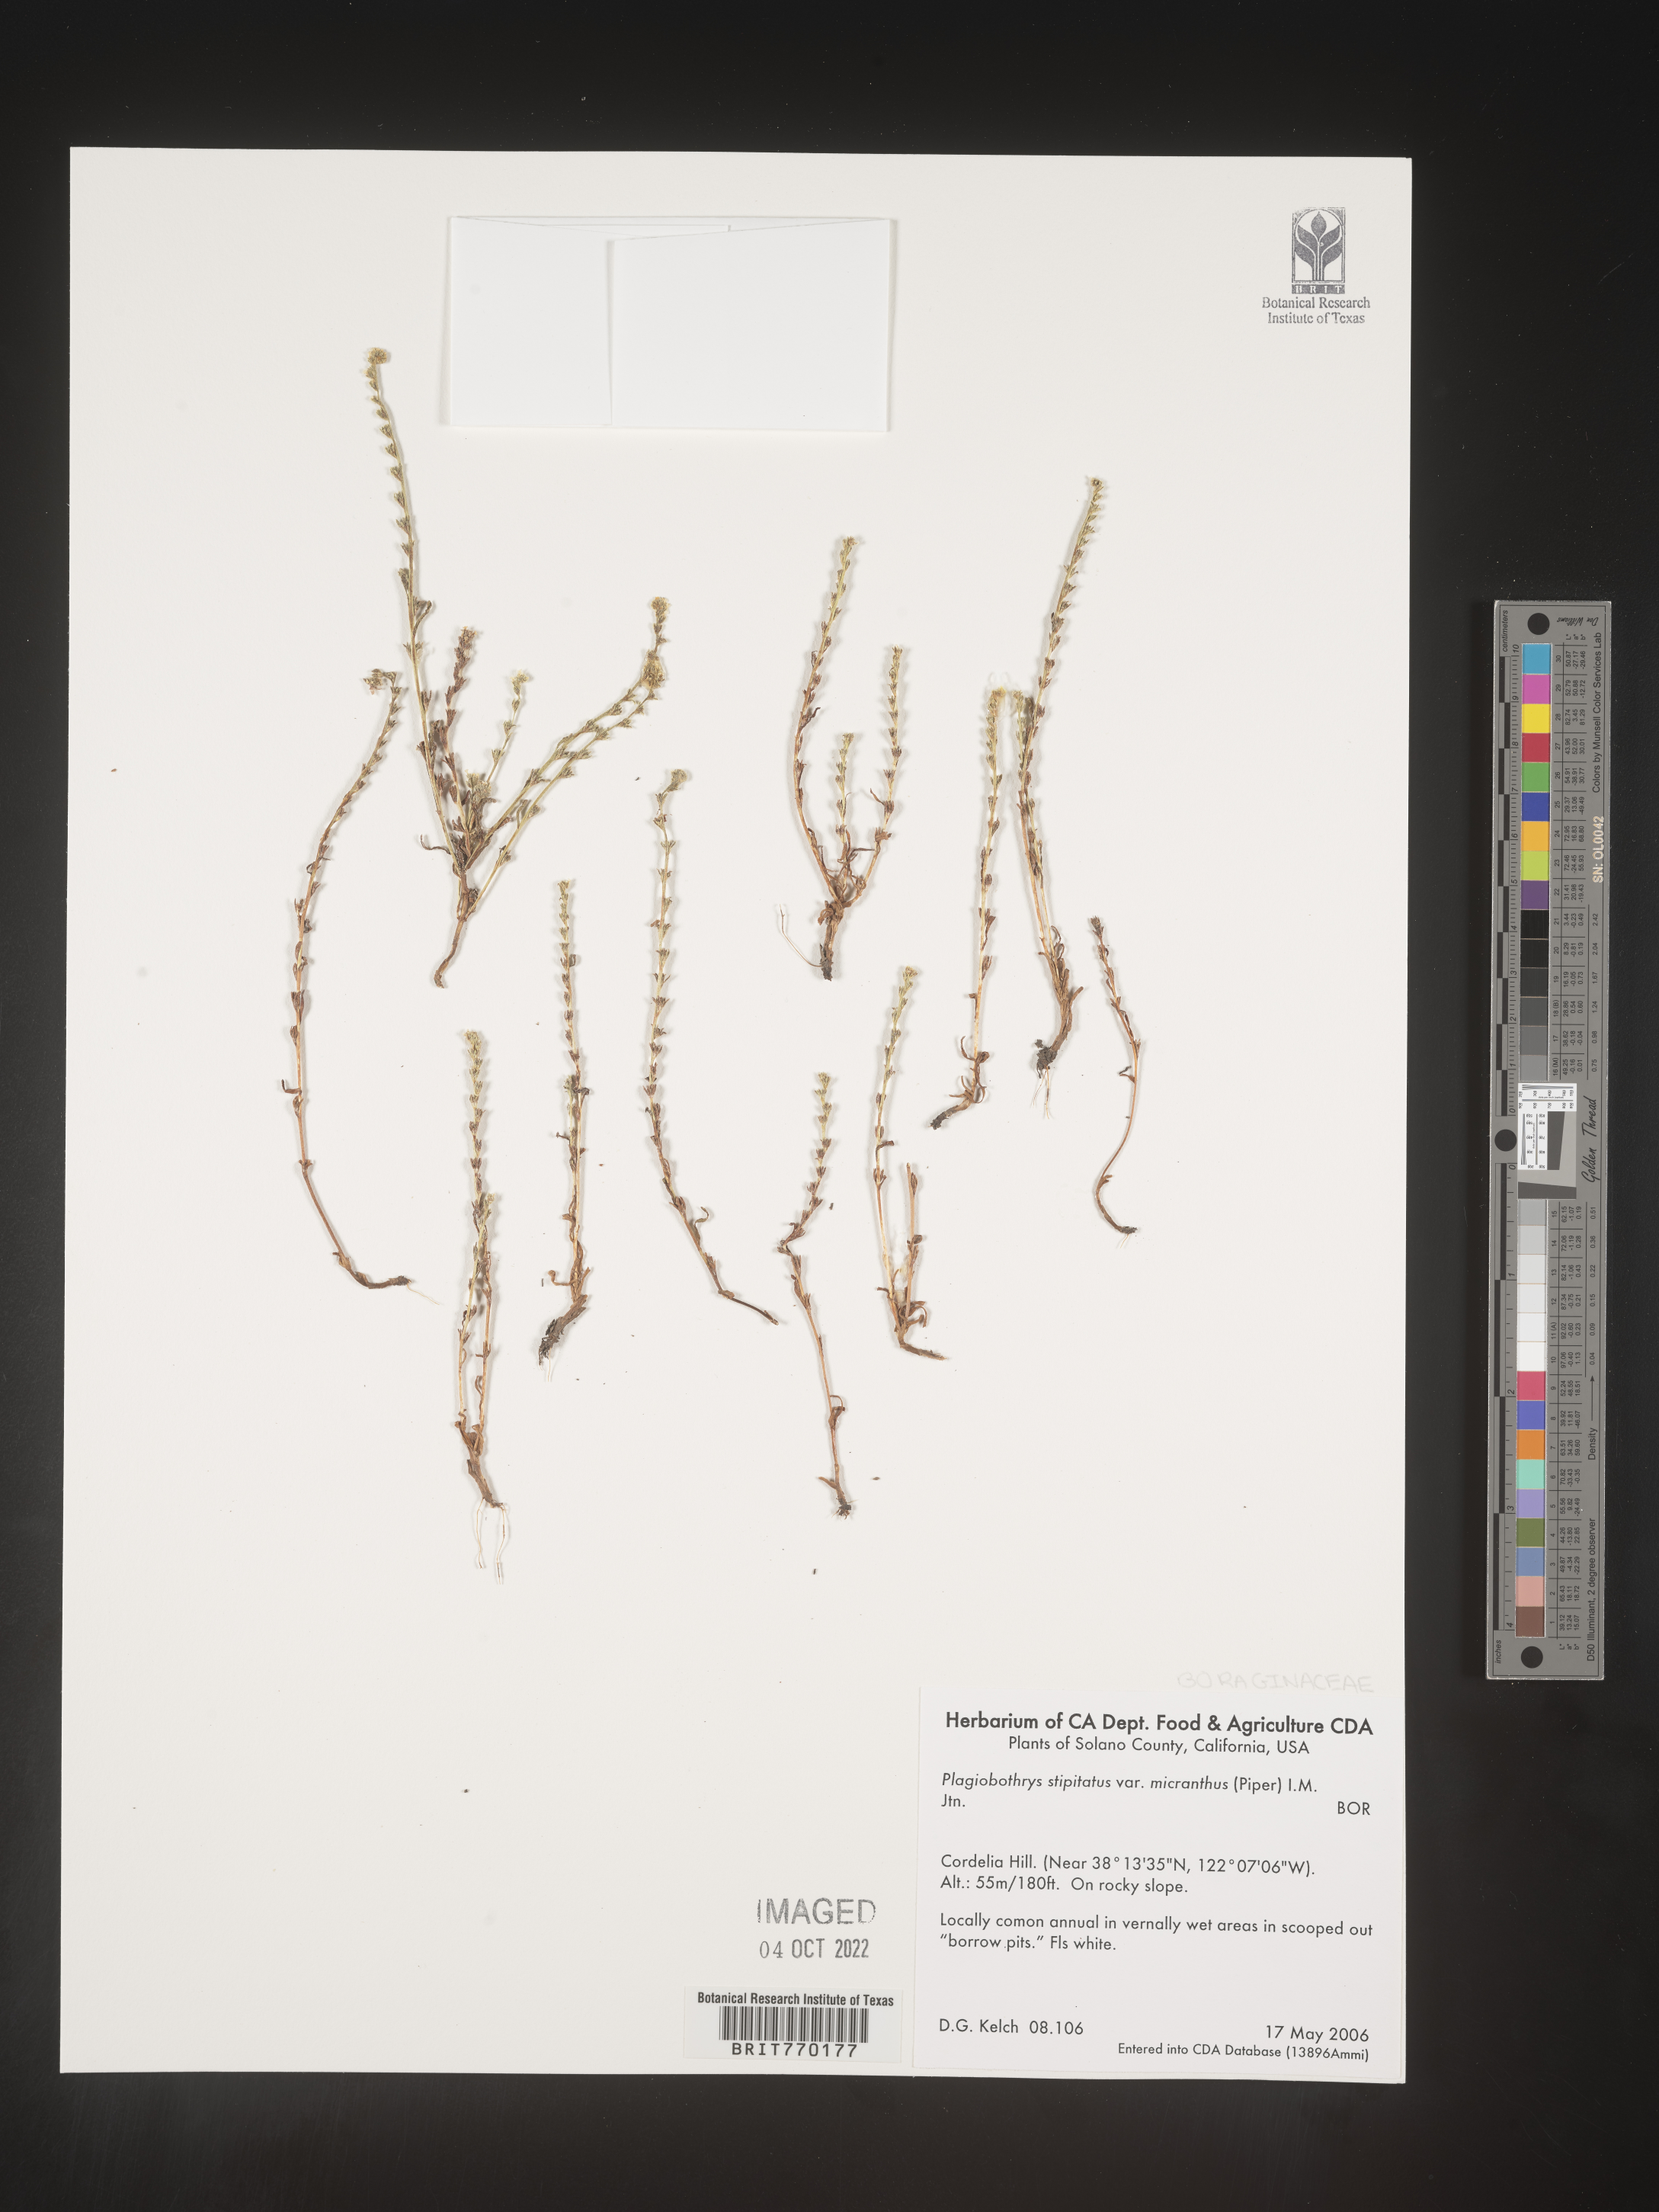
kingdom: Plantae
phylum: Tracheophyta
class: Magnoliopsida
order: Boraginales
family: Boraginaceae
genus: Plagiobothrys
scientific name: Plagiobothrys
